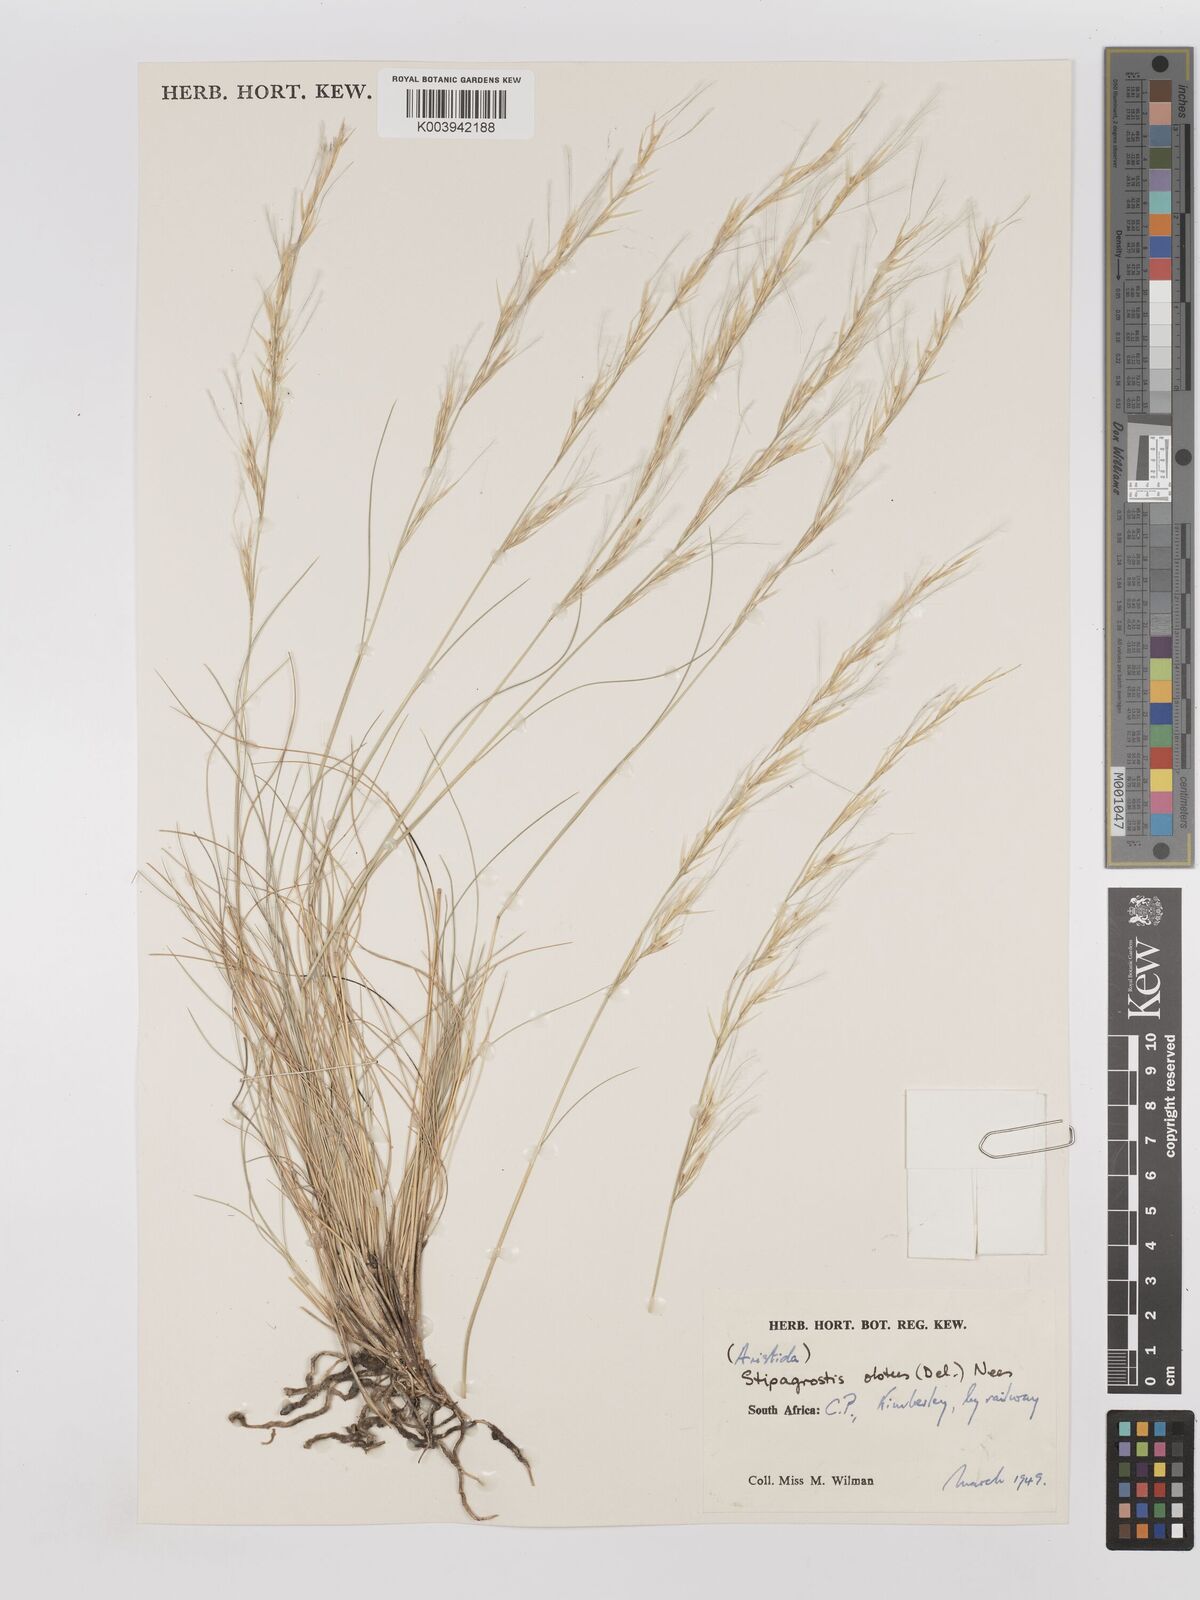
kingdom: Plantae
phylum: Tracheophyta
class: Liliopsida
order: Poales
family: Poaceae
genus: Stipagrostis
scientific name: Stipagrostis obtusa
